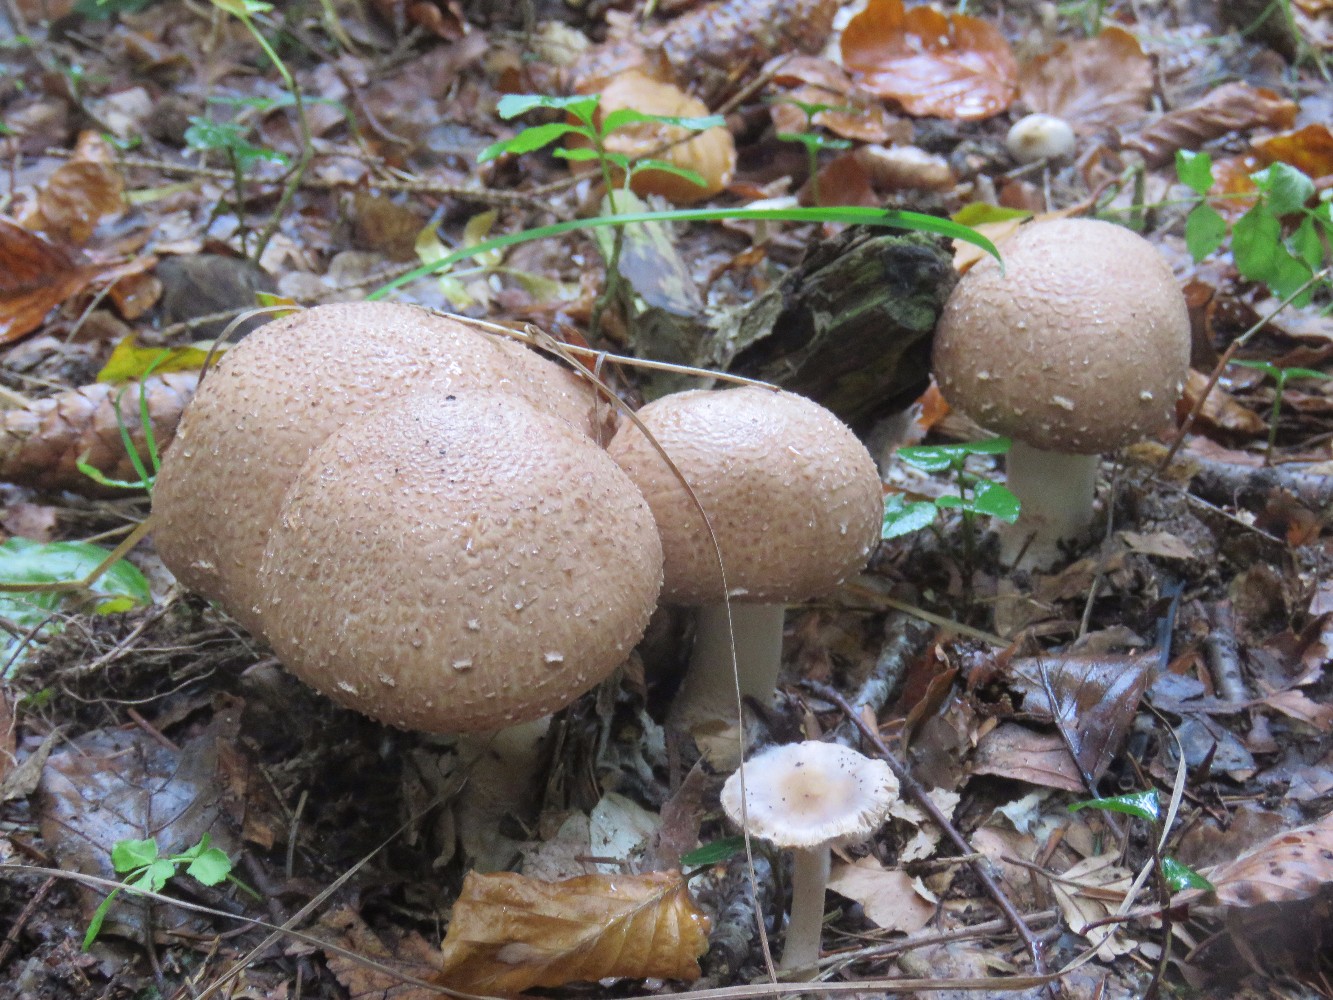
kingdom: Fungi
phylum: Basidiomycota
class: Agaricomycetes
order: Agaricales
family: Agaricaceae
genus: Agaricus
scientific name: Agaricus
